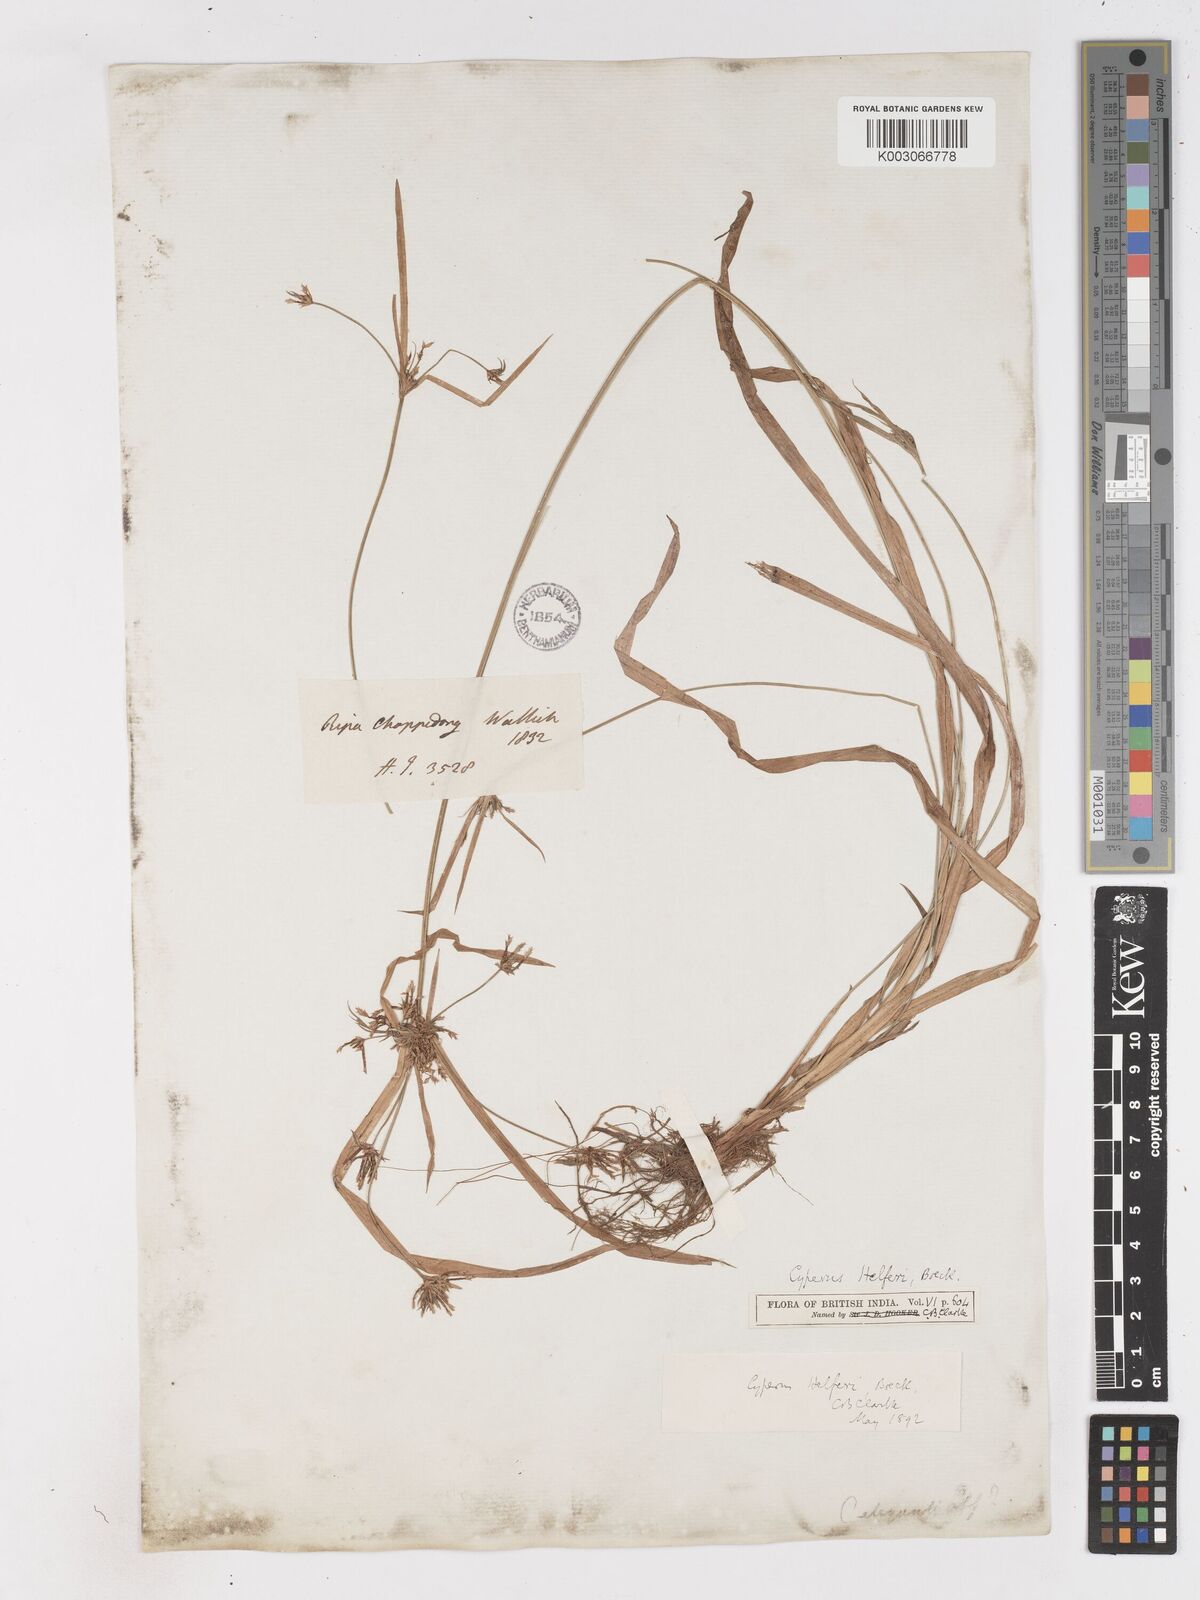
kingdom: Plantae
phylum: Tracheophyta
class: Liliopsida
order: Poales
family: Cyperaceae
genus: Cyperus
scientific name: Cyperus helferi
